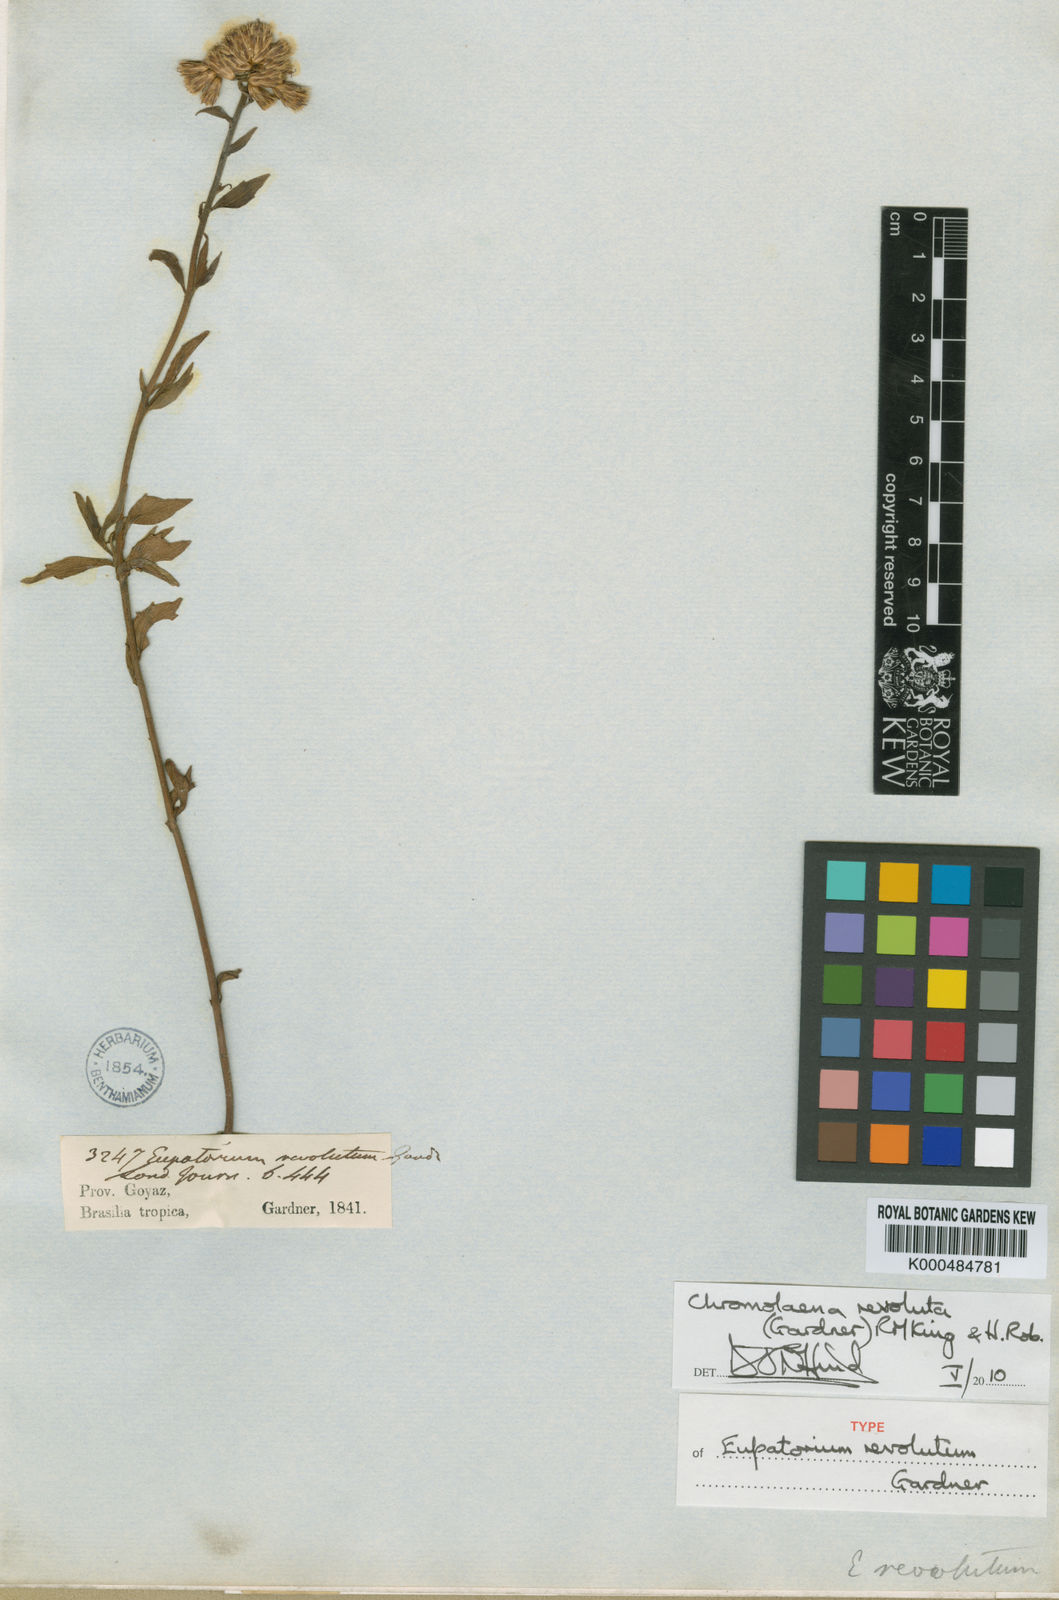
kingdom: Plantae
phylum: Tracheophyta
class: Magnoliopsida
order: Asterales
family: Asteraceae
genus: Chromolaena
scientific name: Chromolaena revoluta
